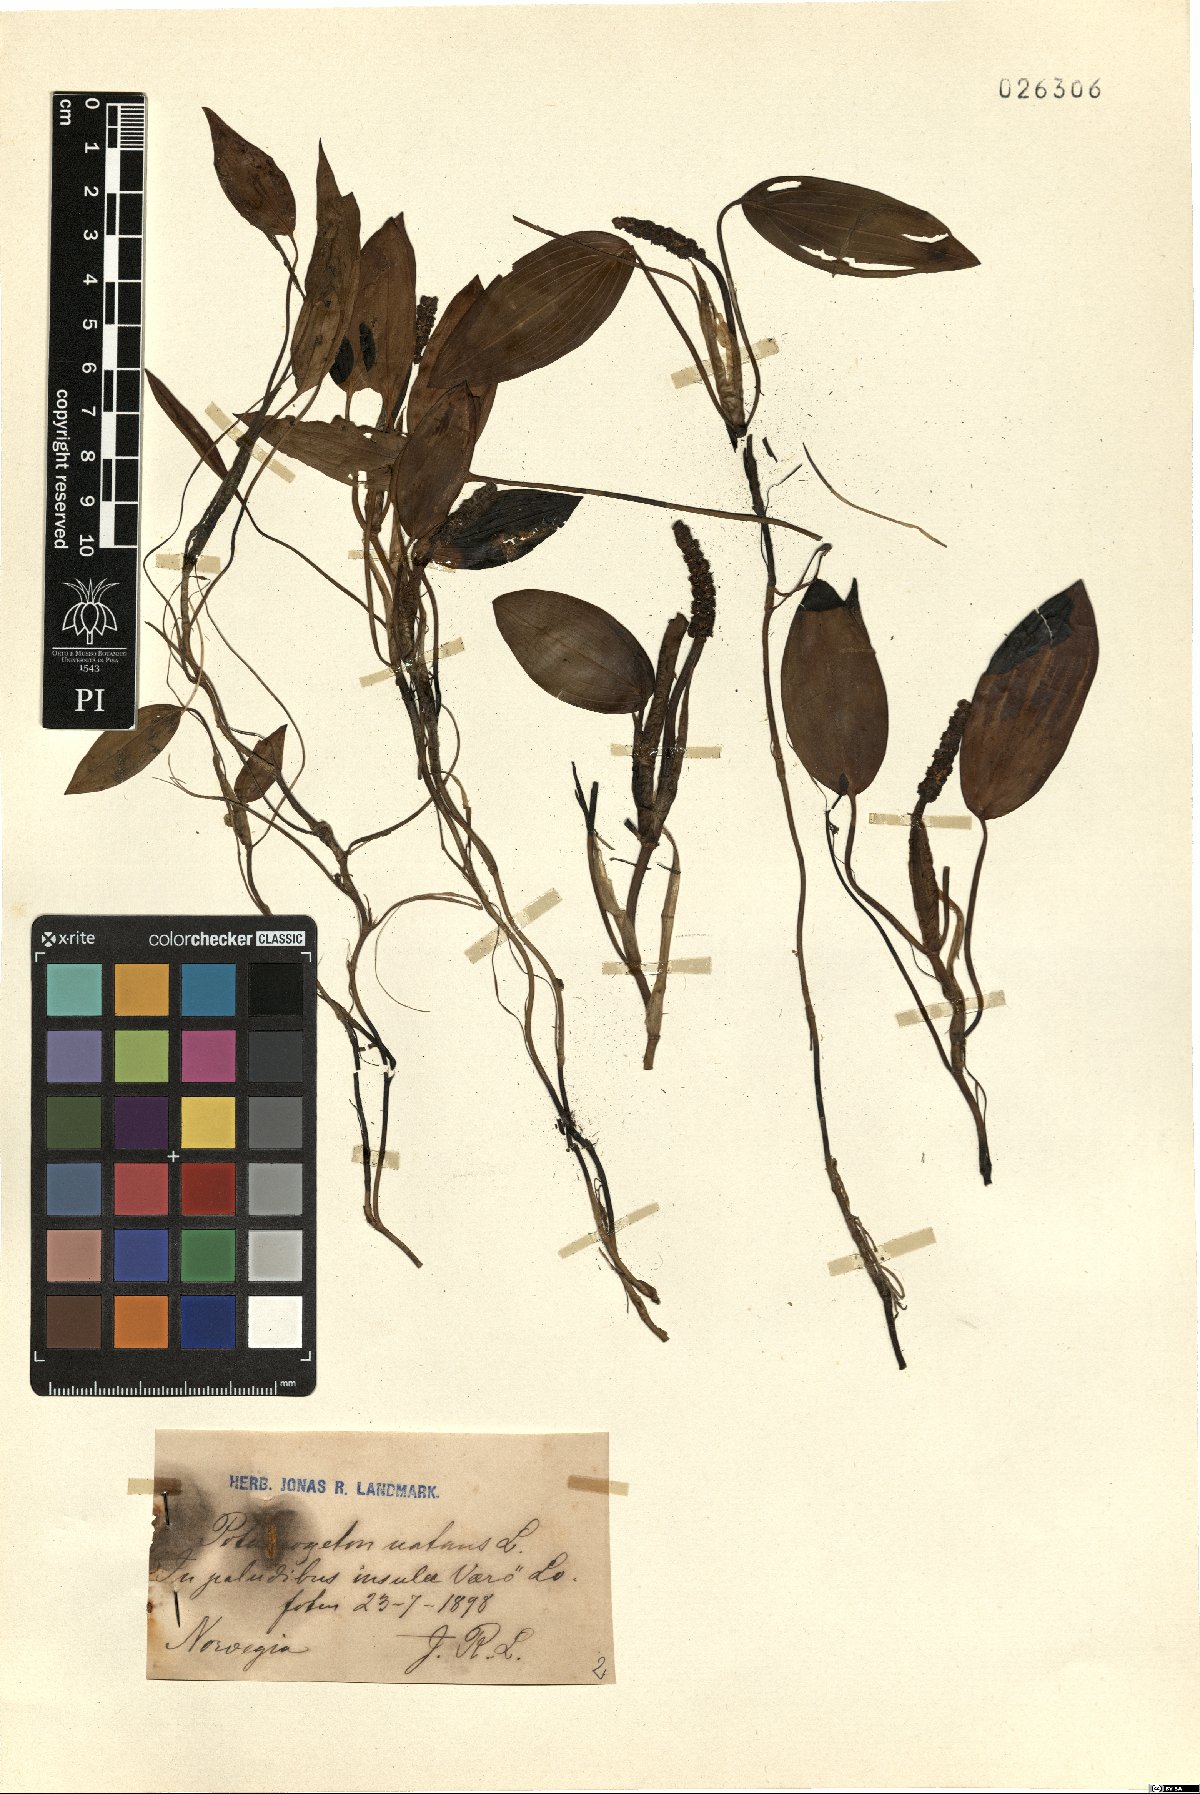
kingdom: Plantae
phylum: Tracheophyta
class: Liliopsida
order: Alismatales
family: Potamogetonaceae
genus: Potamogeton
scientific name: Potamogeton natans
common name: Broad-leaved pondweed
